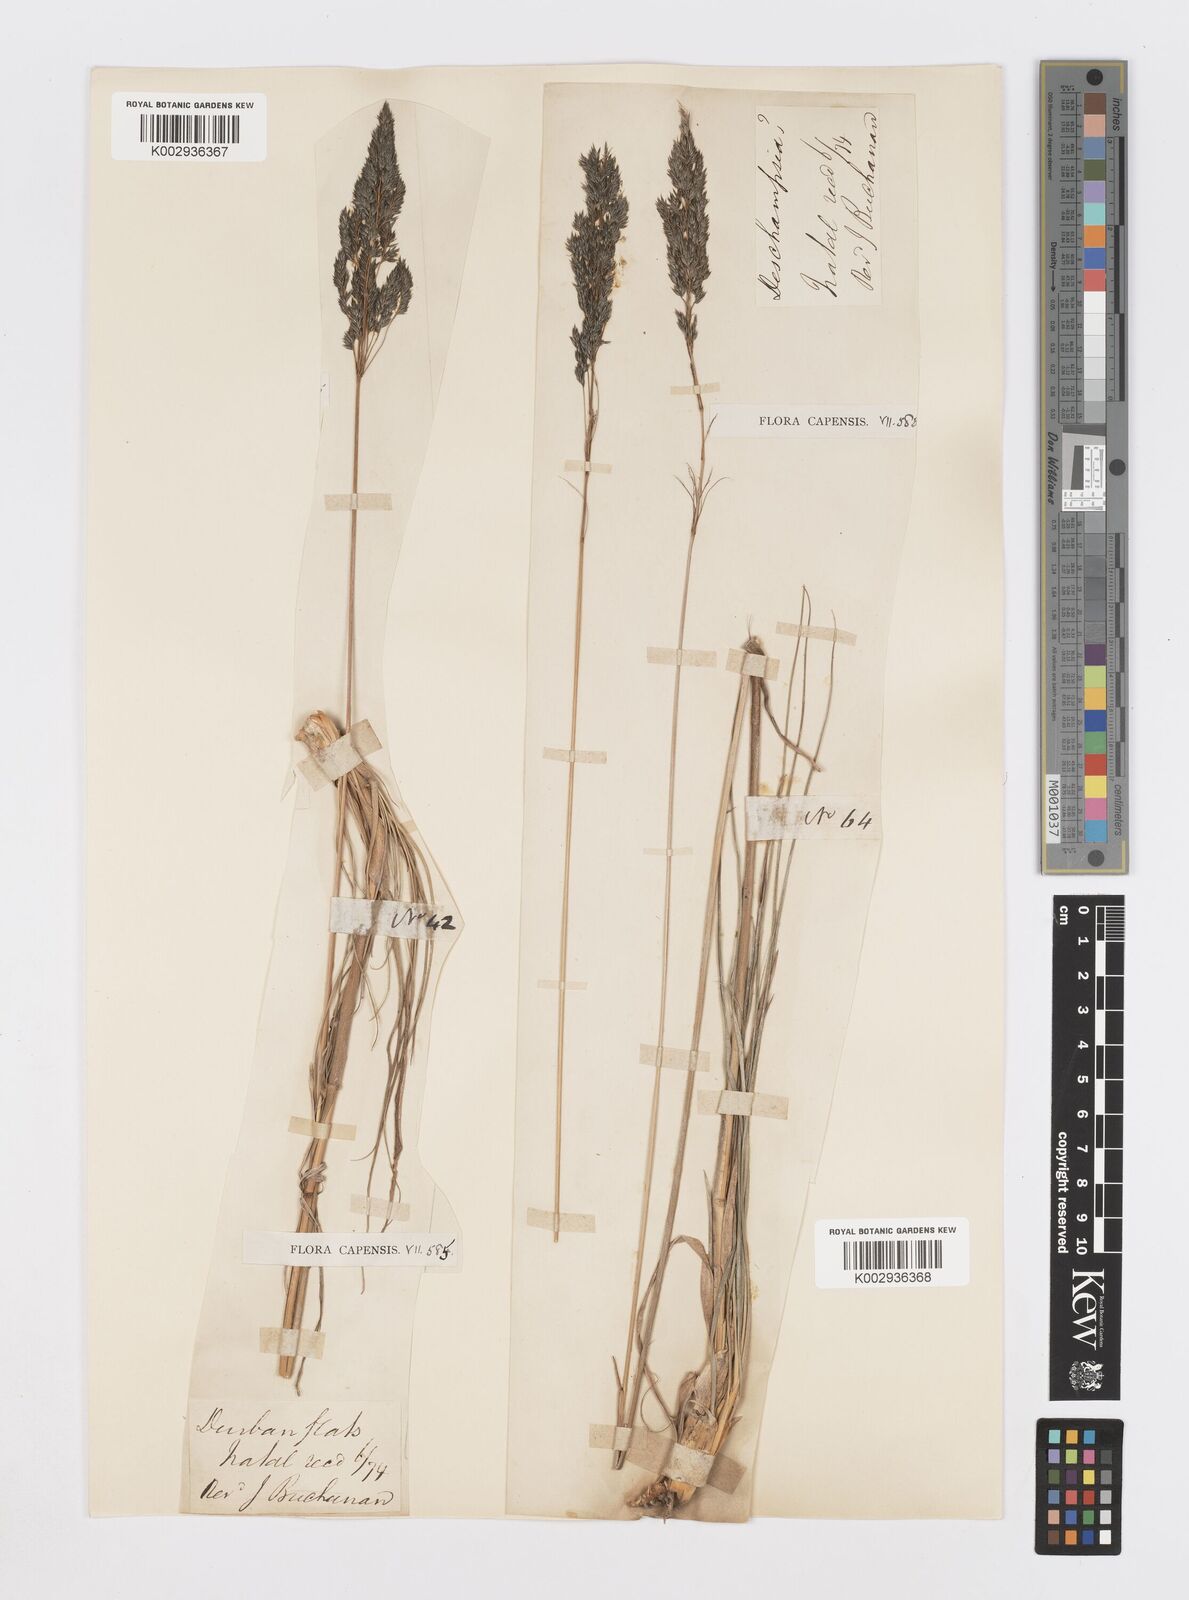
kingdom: Plantae
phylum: Tracheophyta
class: Liliopsida
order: Poales
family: Poaceae
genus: Sporobolus
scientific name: Sporobolus centrifugus
